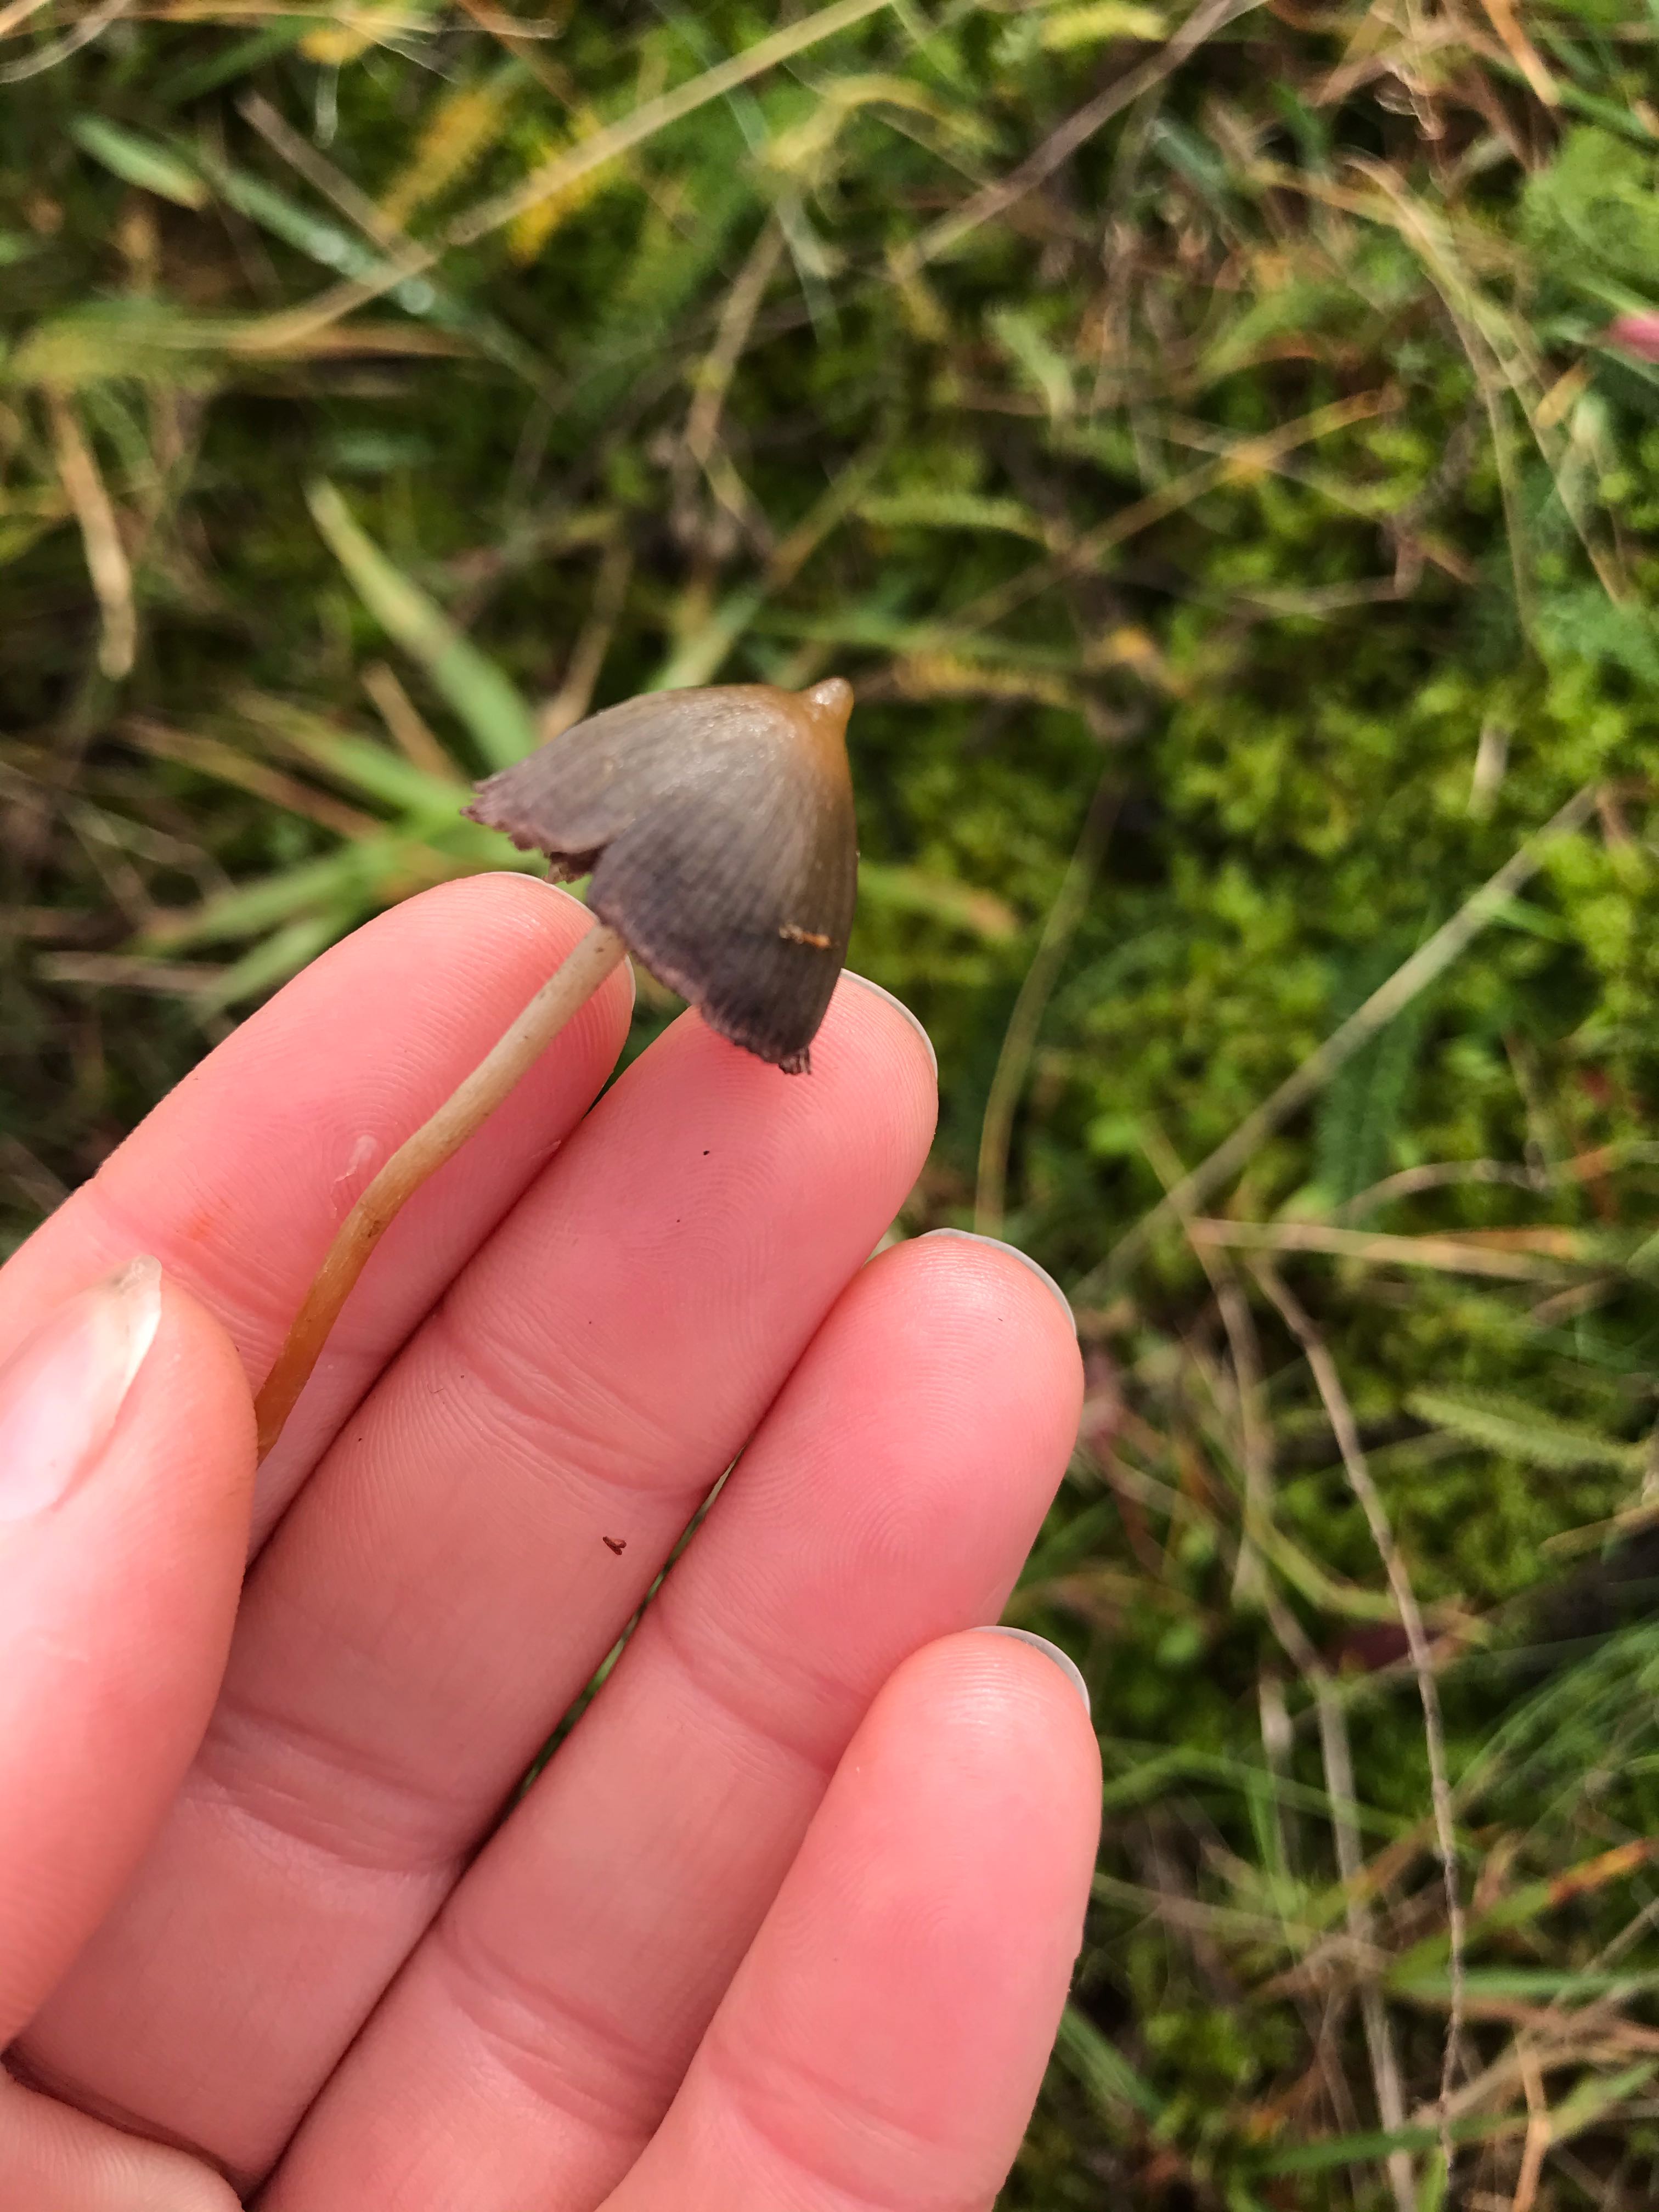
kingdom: Fungi
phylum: Basidiomycota
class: Agaricomycetes
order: Agaricales
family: Hymenogastraceae
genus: Psilocybe
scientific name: Psilocybe semilanceata
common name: spids nøgenhat
